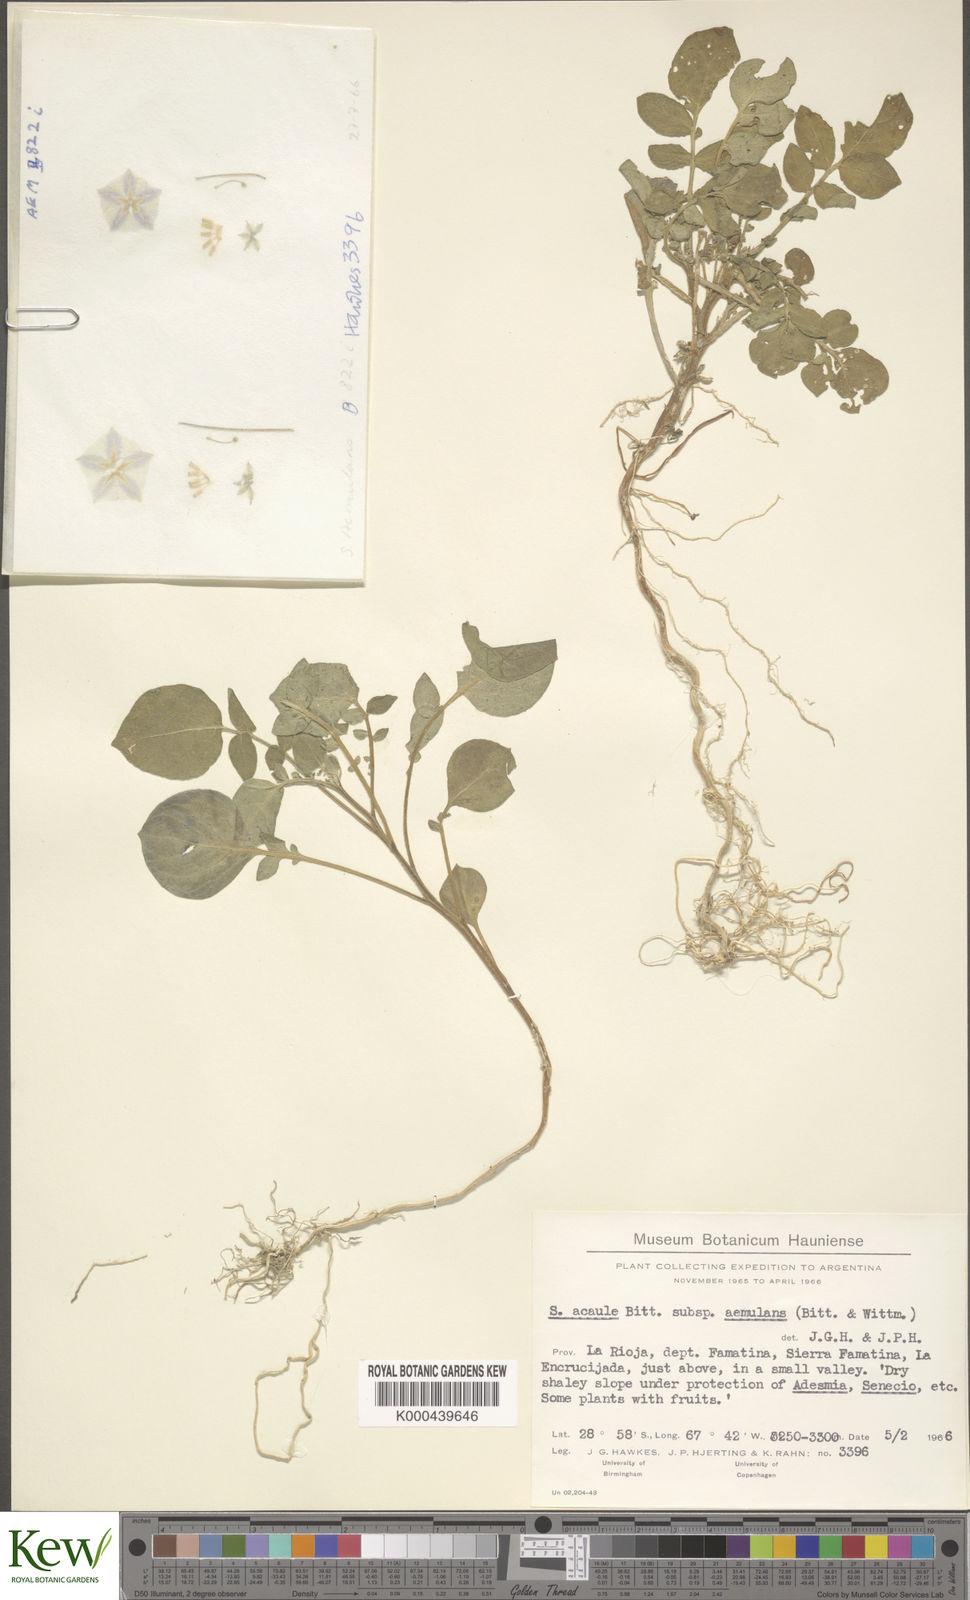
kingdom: Plantae
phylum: Tracheophyta
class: Magnoliopsida
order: Solanales
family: Solanaceae
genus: Solanum
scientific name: Solanum aemulans
